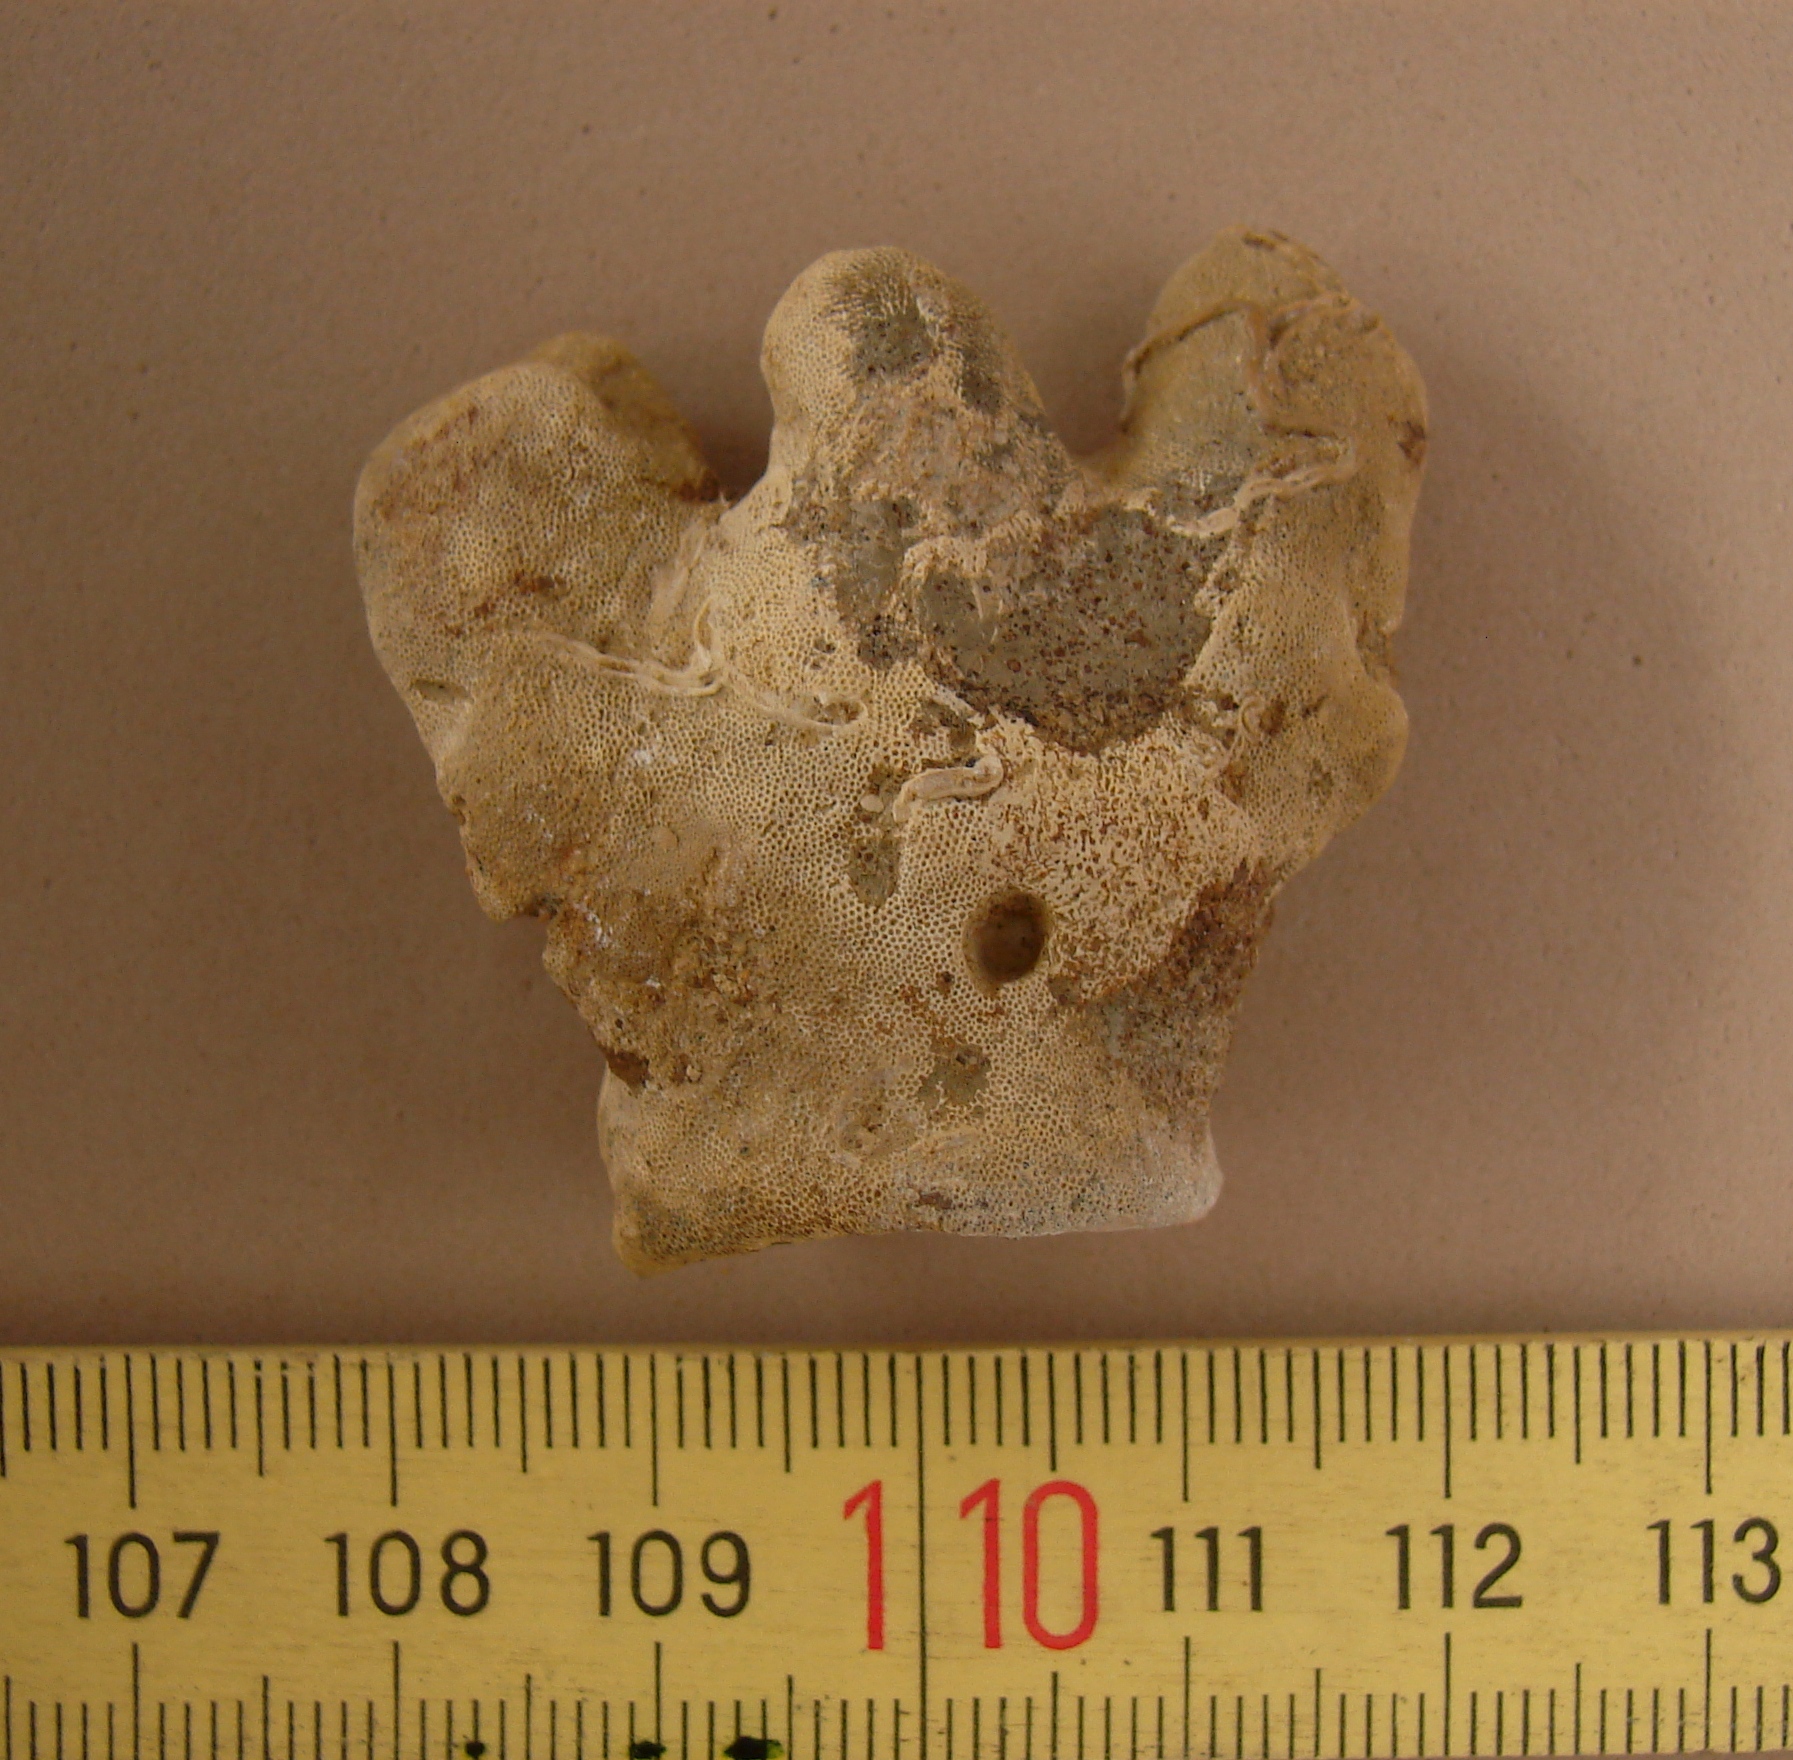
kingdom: Animalia
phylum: Porifera
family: Chaetetidae
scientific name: Chaetetidae
